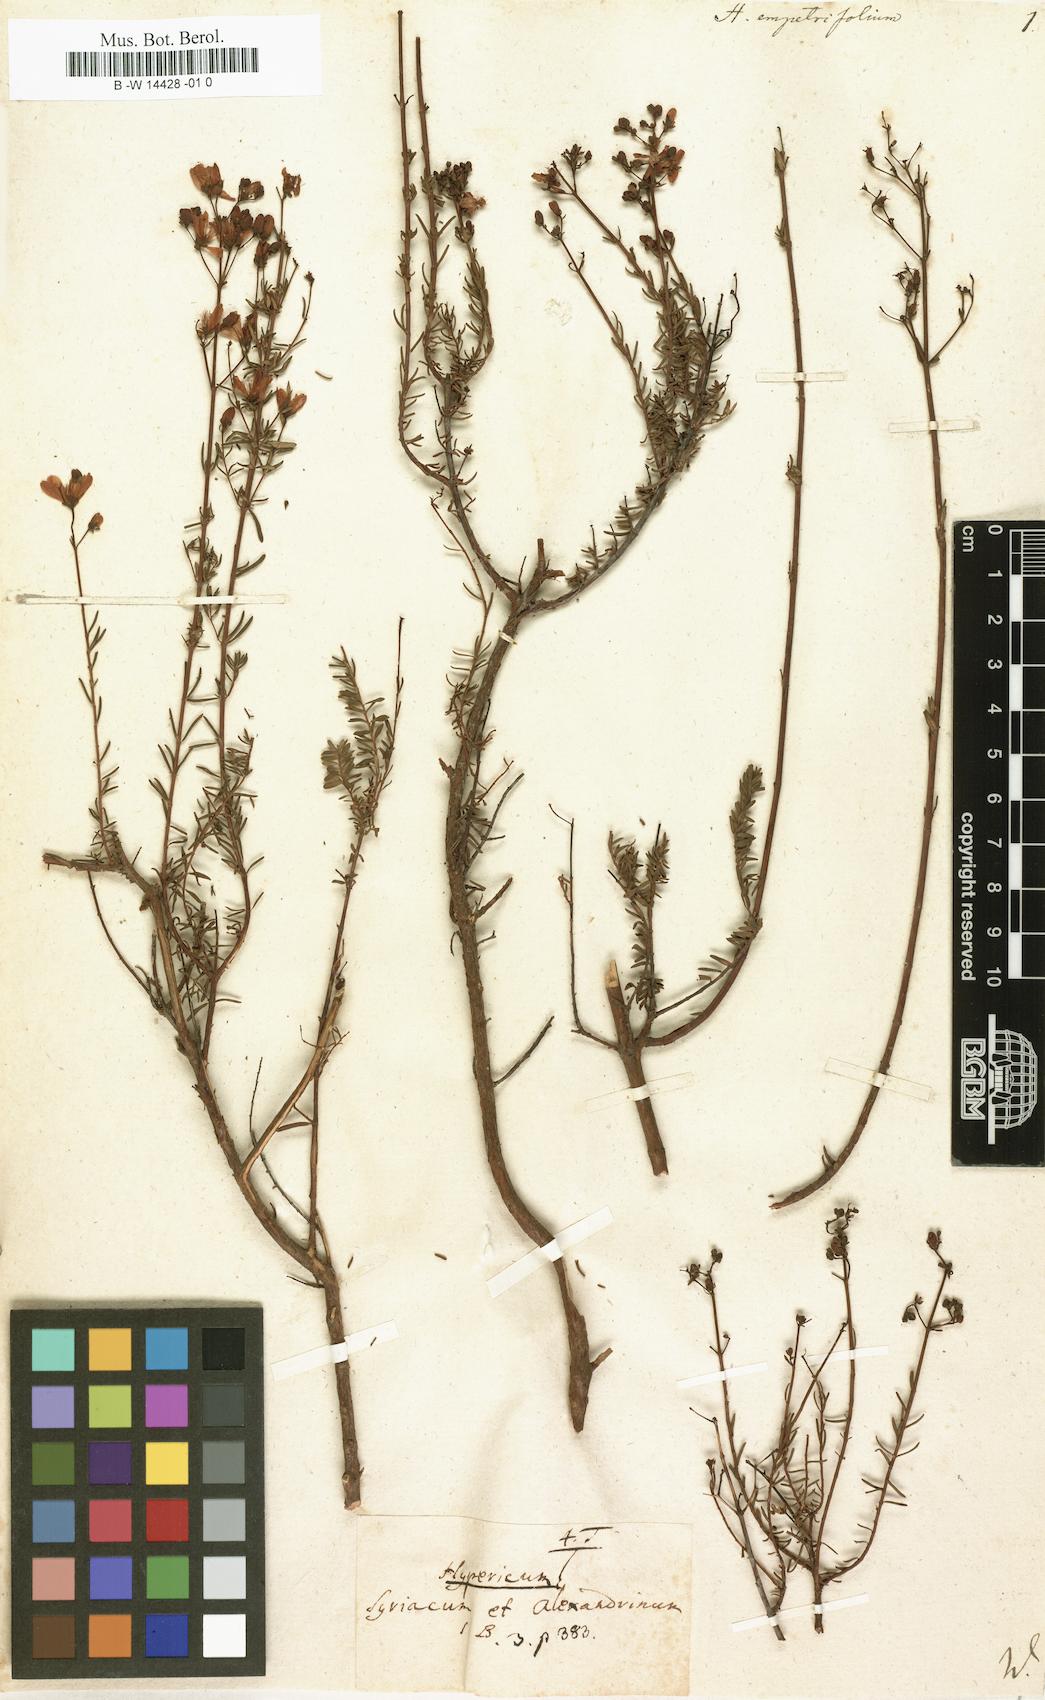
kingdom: Plantae
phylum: Tracheophyta
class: Magnoliopsida
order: Malpighiales
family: Hypericaceae
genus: Hypericum
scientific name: Hypericum empetrifolium
